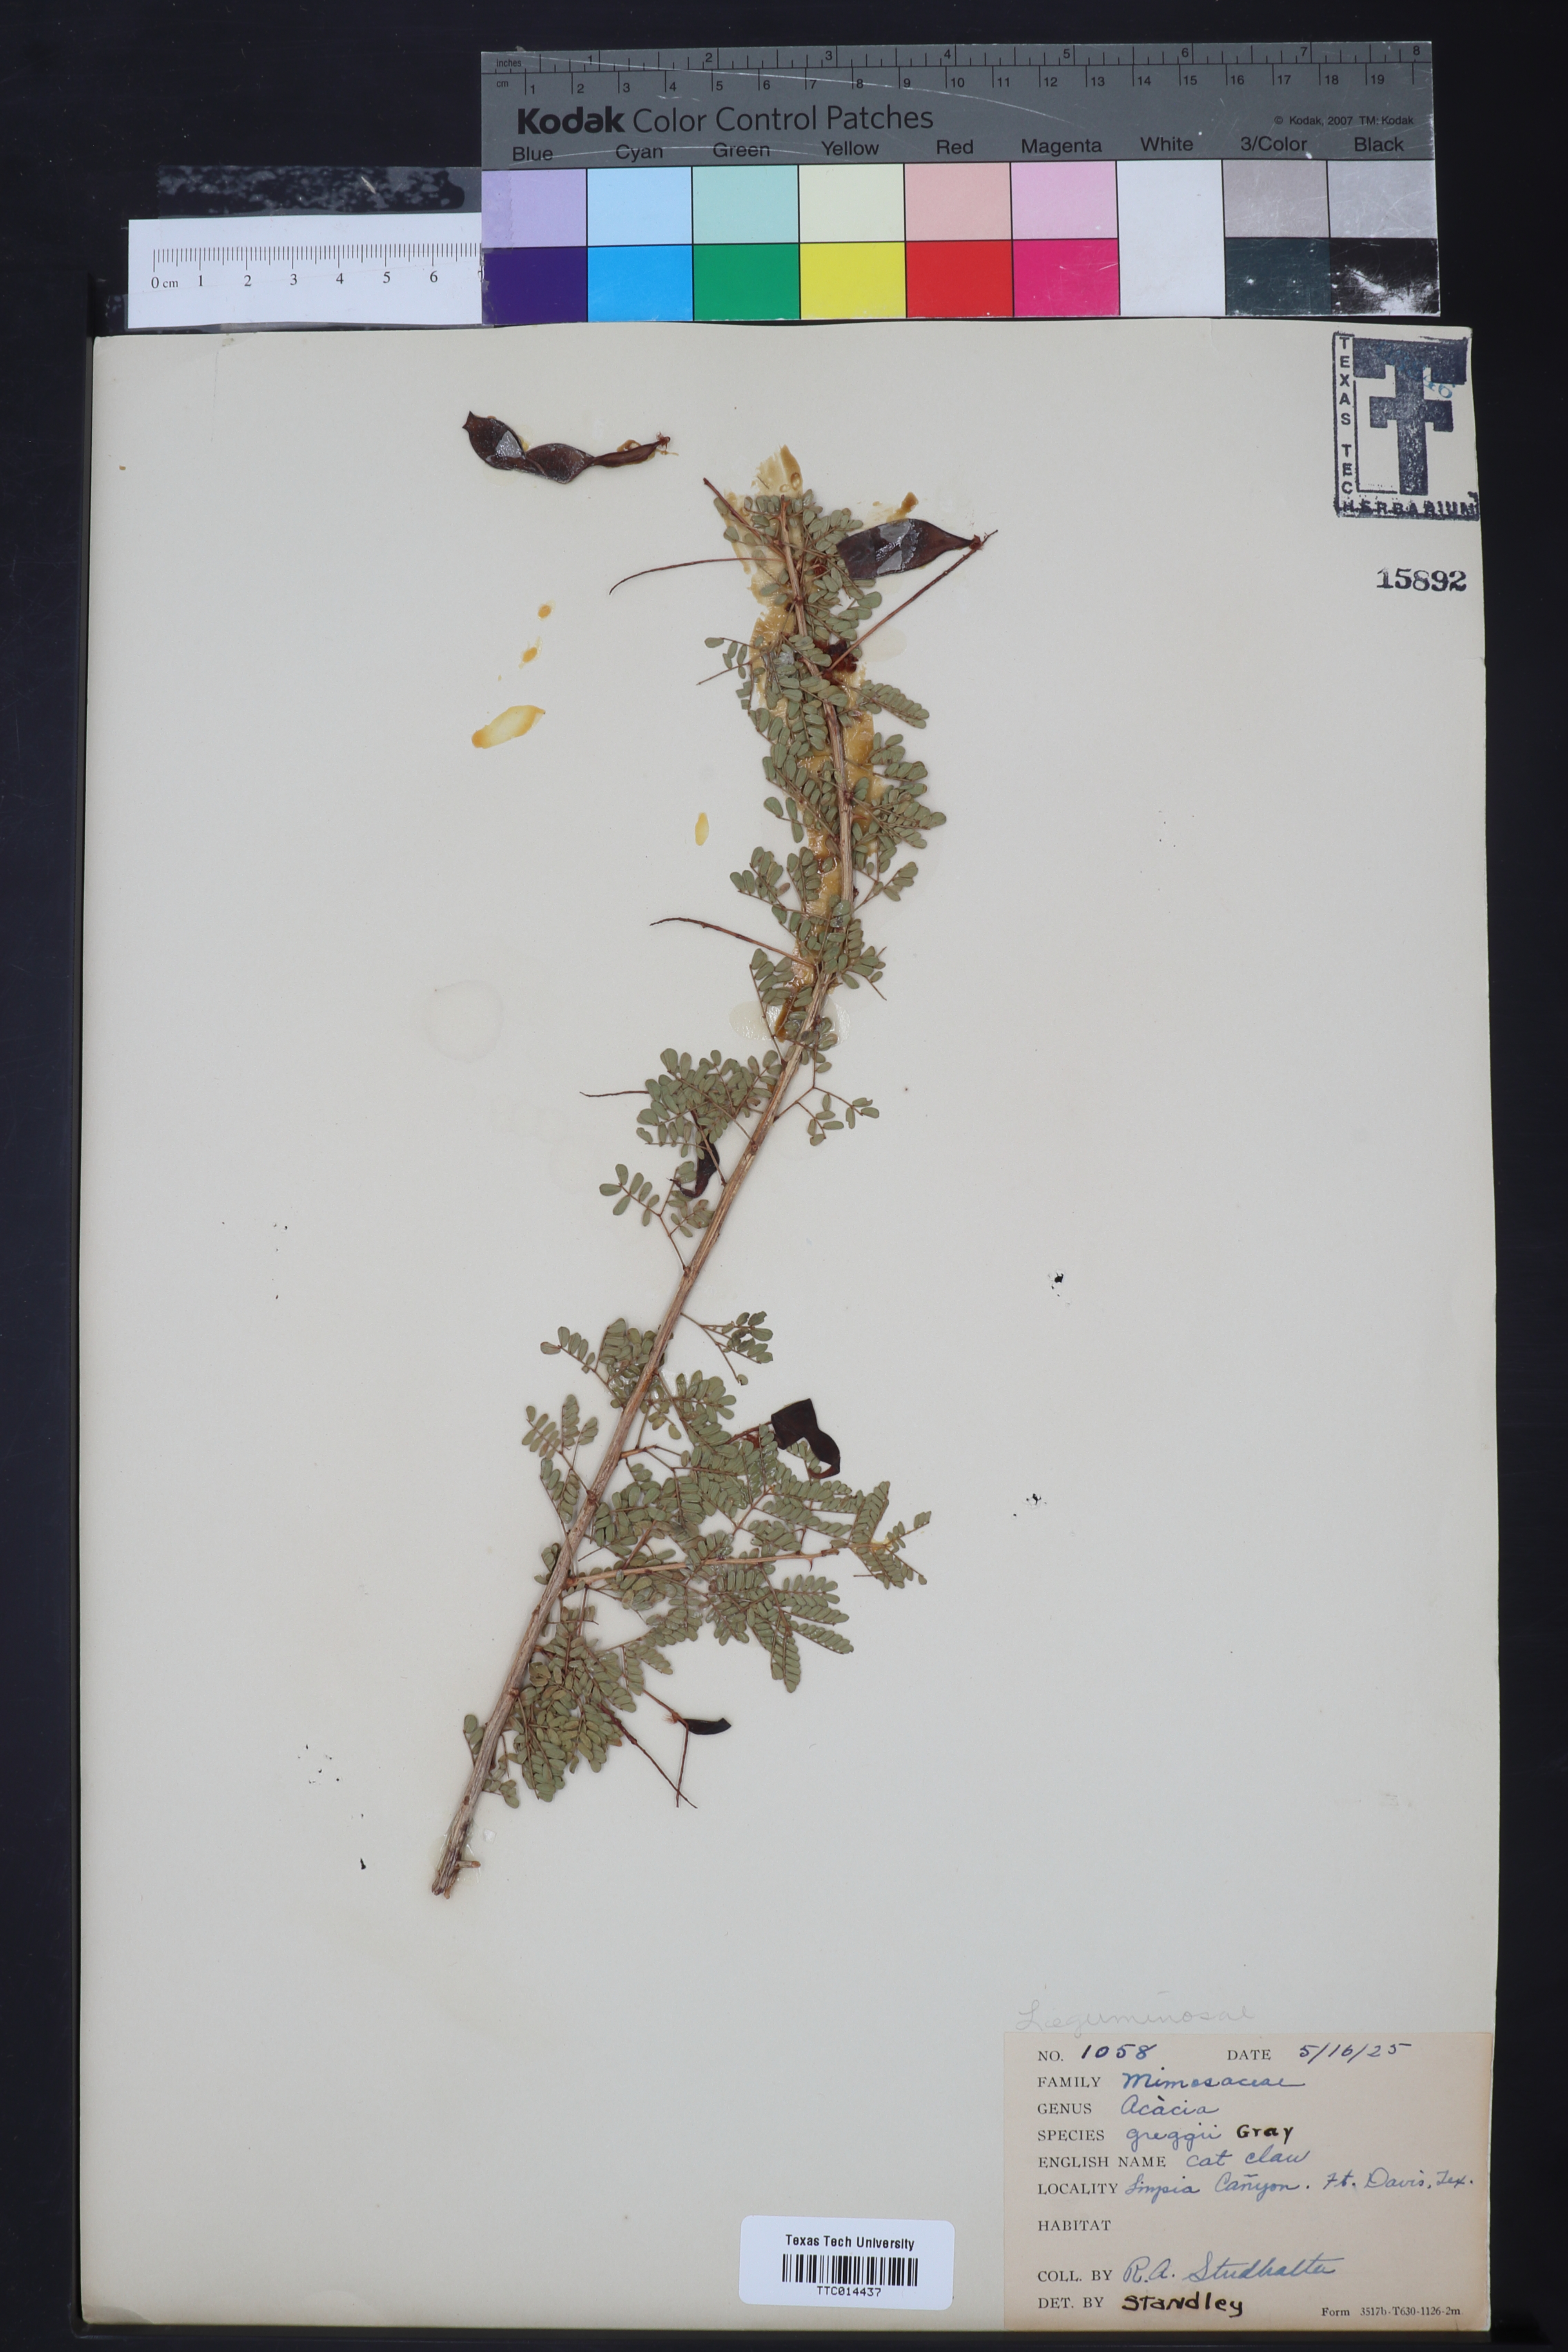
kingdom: Plantae
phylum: Tracheophyta
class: Magnoliopsida
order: Fabales
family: Fabaceae
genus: Senegalia
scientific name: Senegalia greggii
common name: Texas-mimosa
